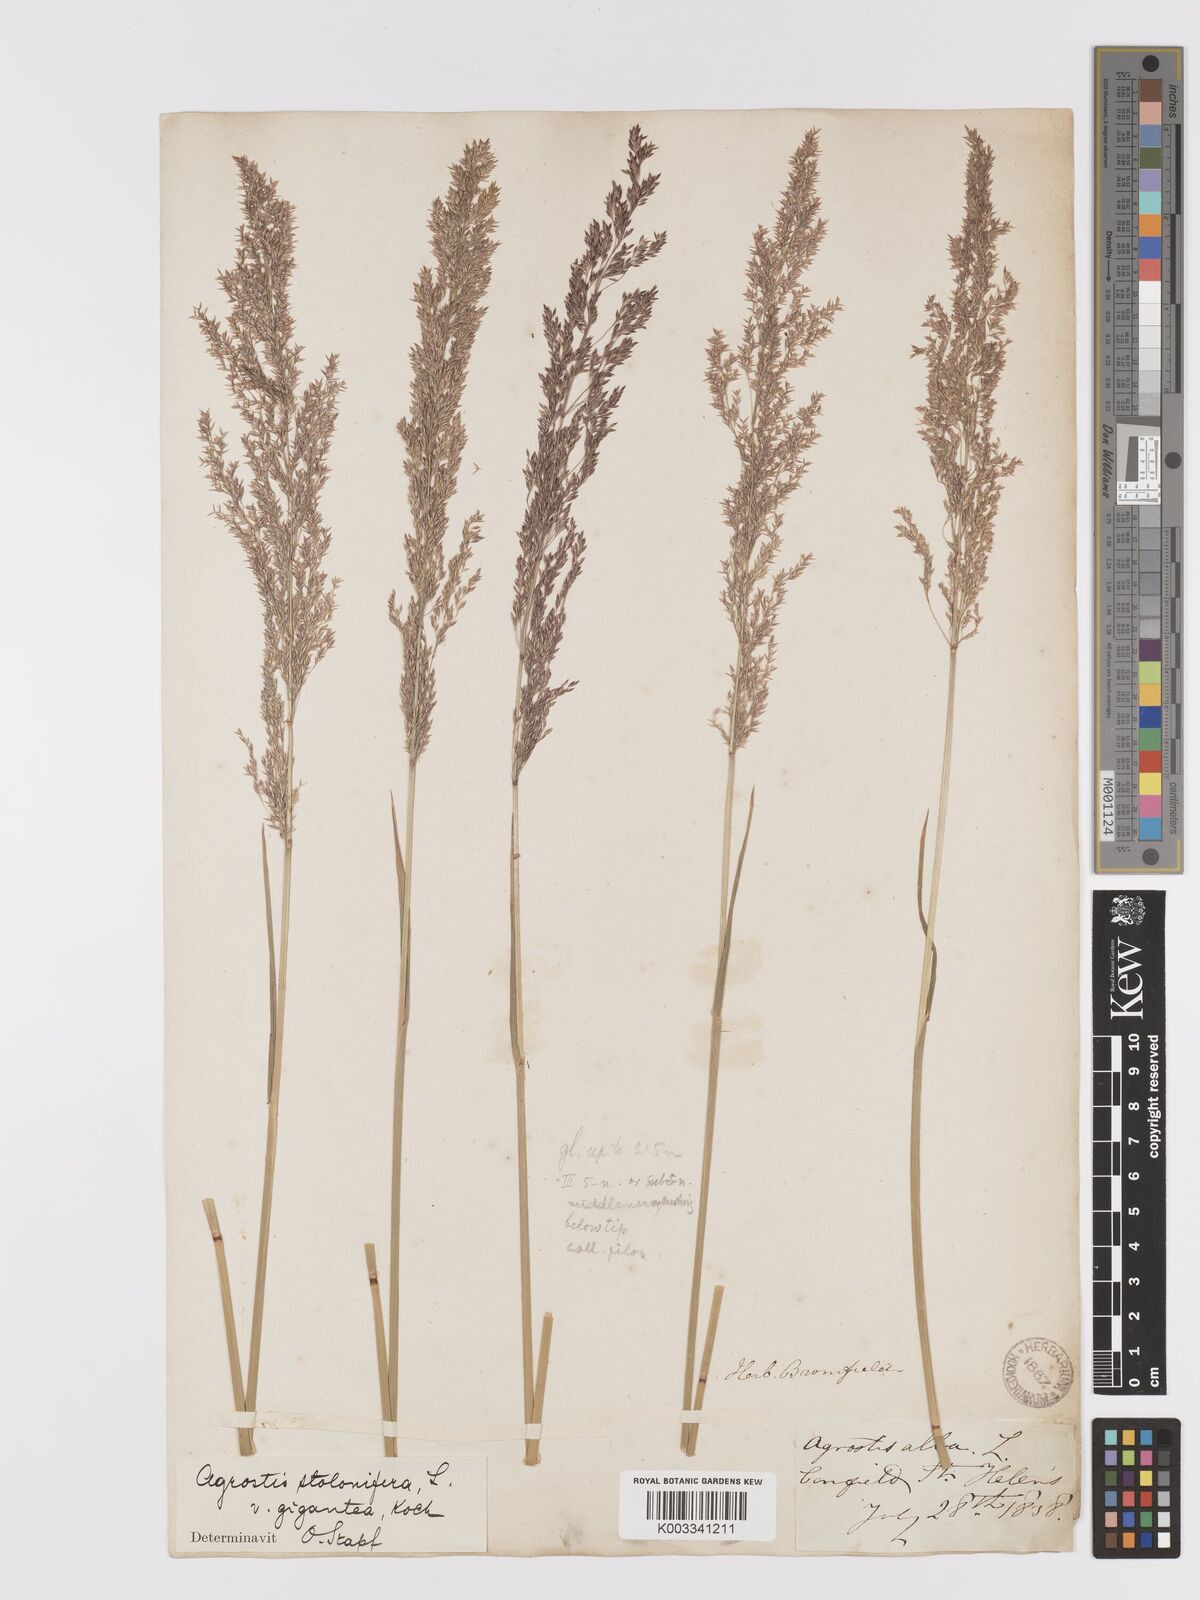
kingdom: Plantae
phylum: Tracheophyta
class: Liliopsida
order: Poales
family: Poaceae
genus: Agrostis
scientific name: Agrostis gigantea
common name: Black bent
